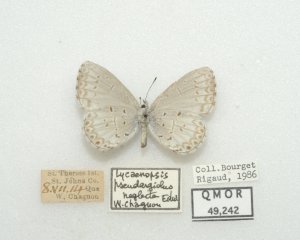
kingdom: Animalia
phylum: Arthropoda
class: Insecta
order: Lepidoptera
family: Lycaenidae
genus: Cyaniris
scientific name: Cyaniris neglecta
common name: Summer Azure
